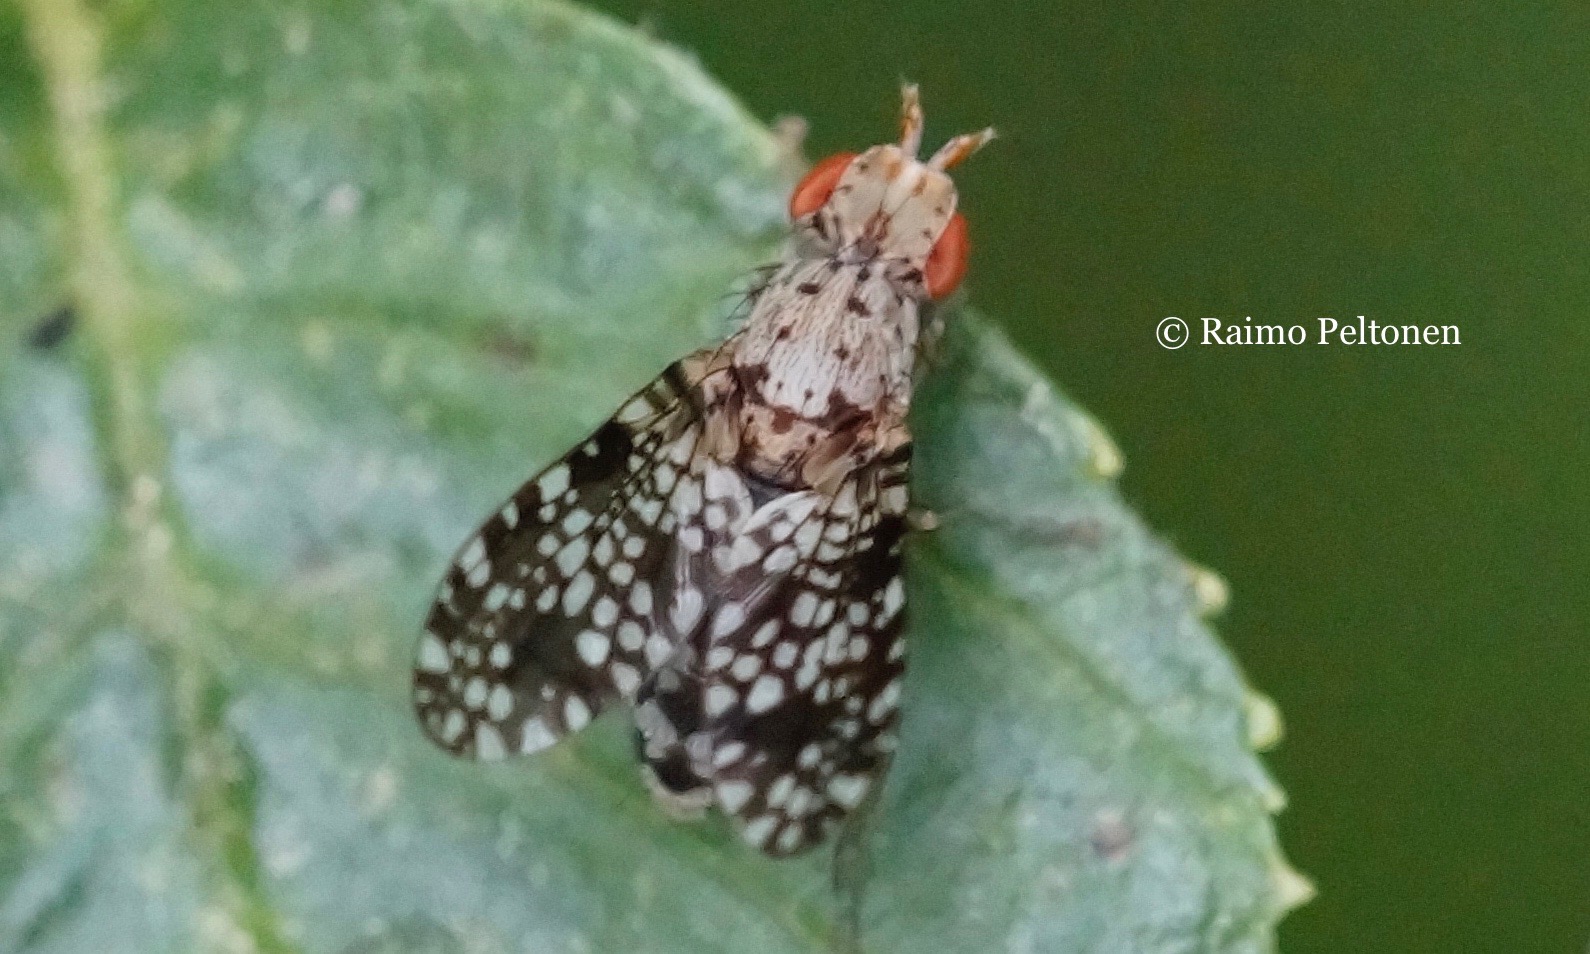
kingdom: Animalia
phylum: Arthropoda
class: Insecta
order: Diptera
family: Sciomyzidae
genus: Trypetoptera
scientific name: Trypetoptera punctulata
